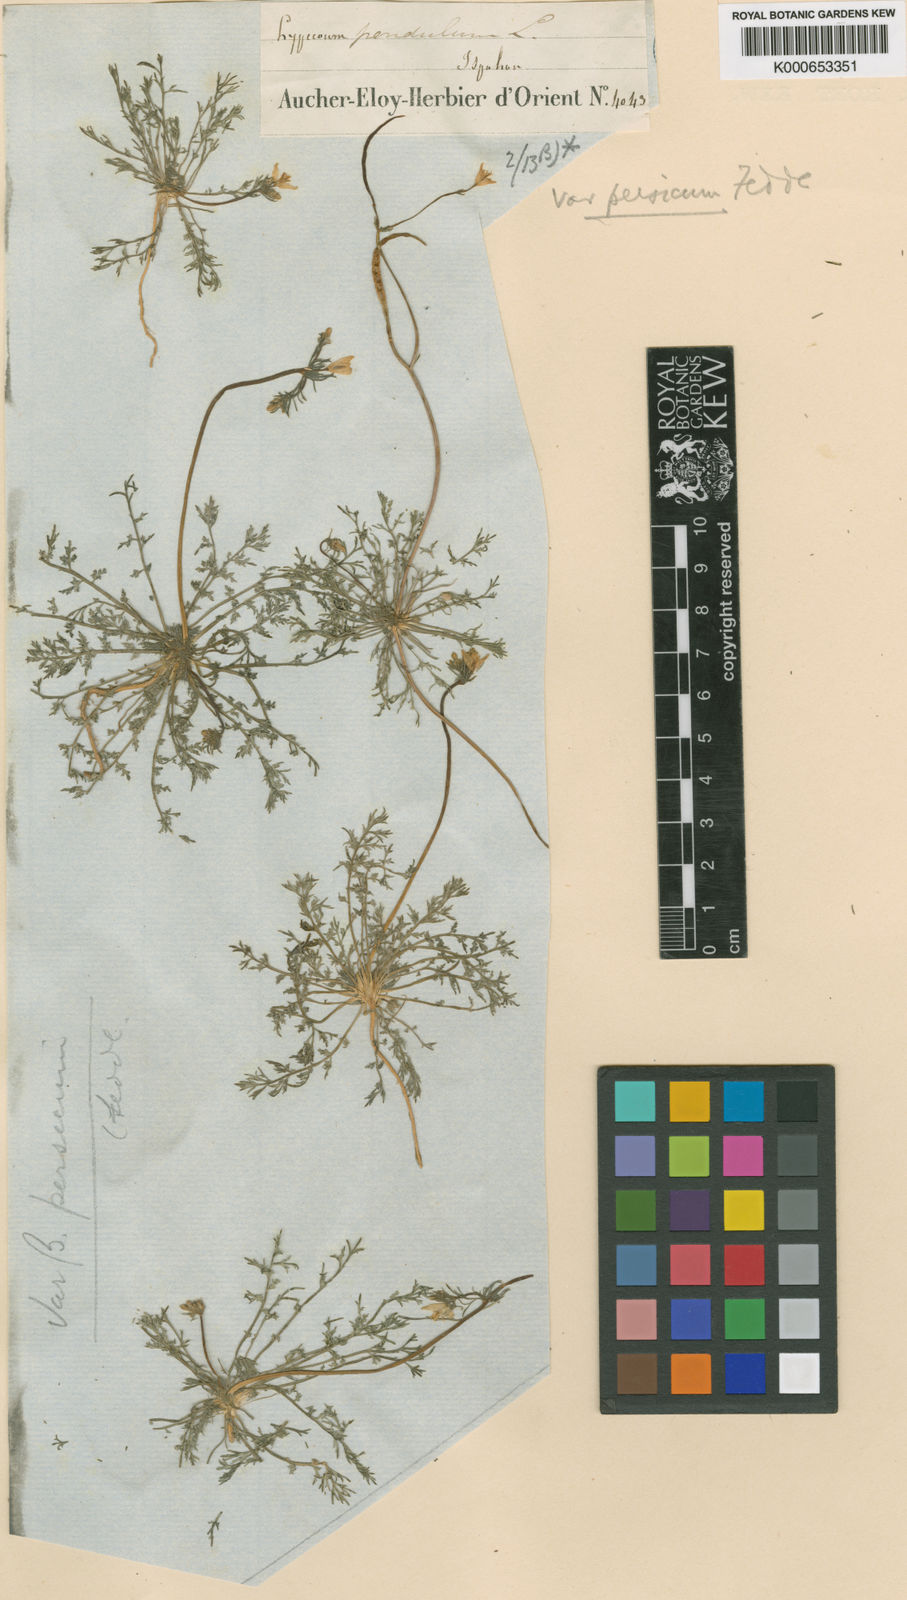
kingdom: Plantae
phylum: Tracheophyta
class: Magnoliopsida
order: Ranunculales
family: Papaveraceae
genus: Hypecoum
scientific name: Hypecoum pendulum
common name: Nodding hypecoum
